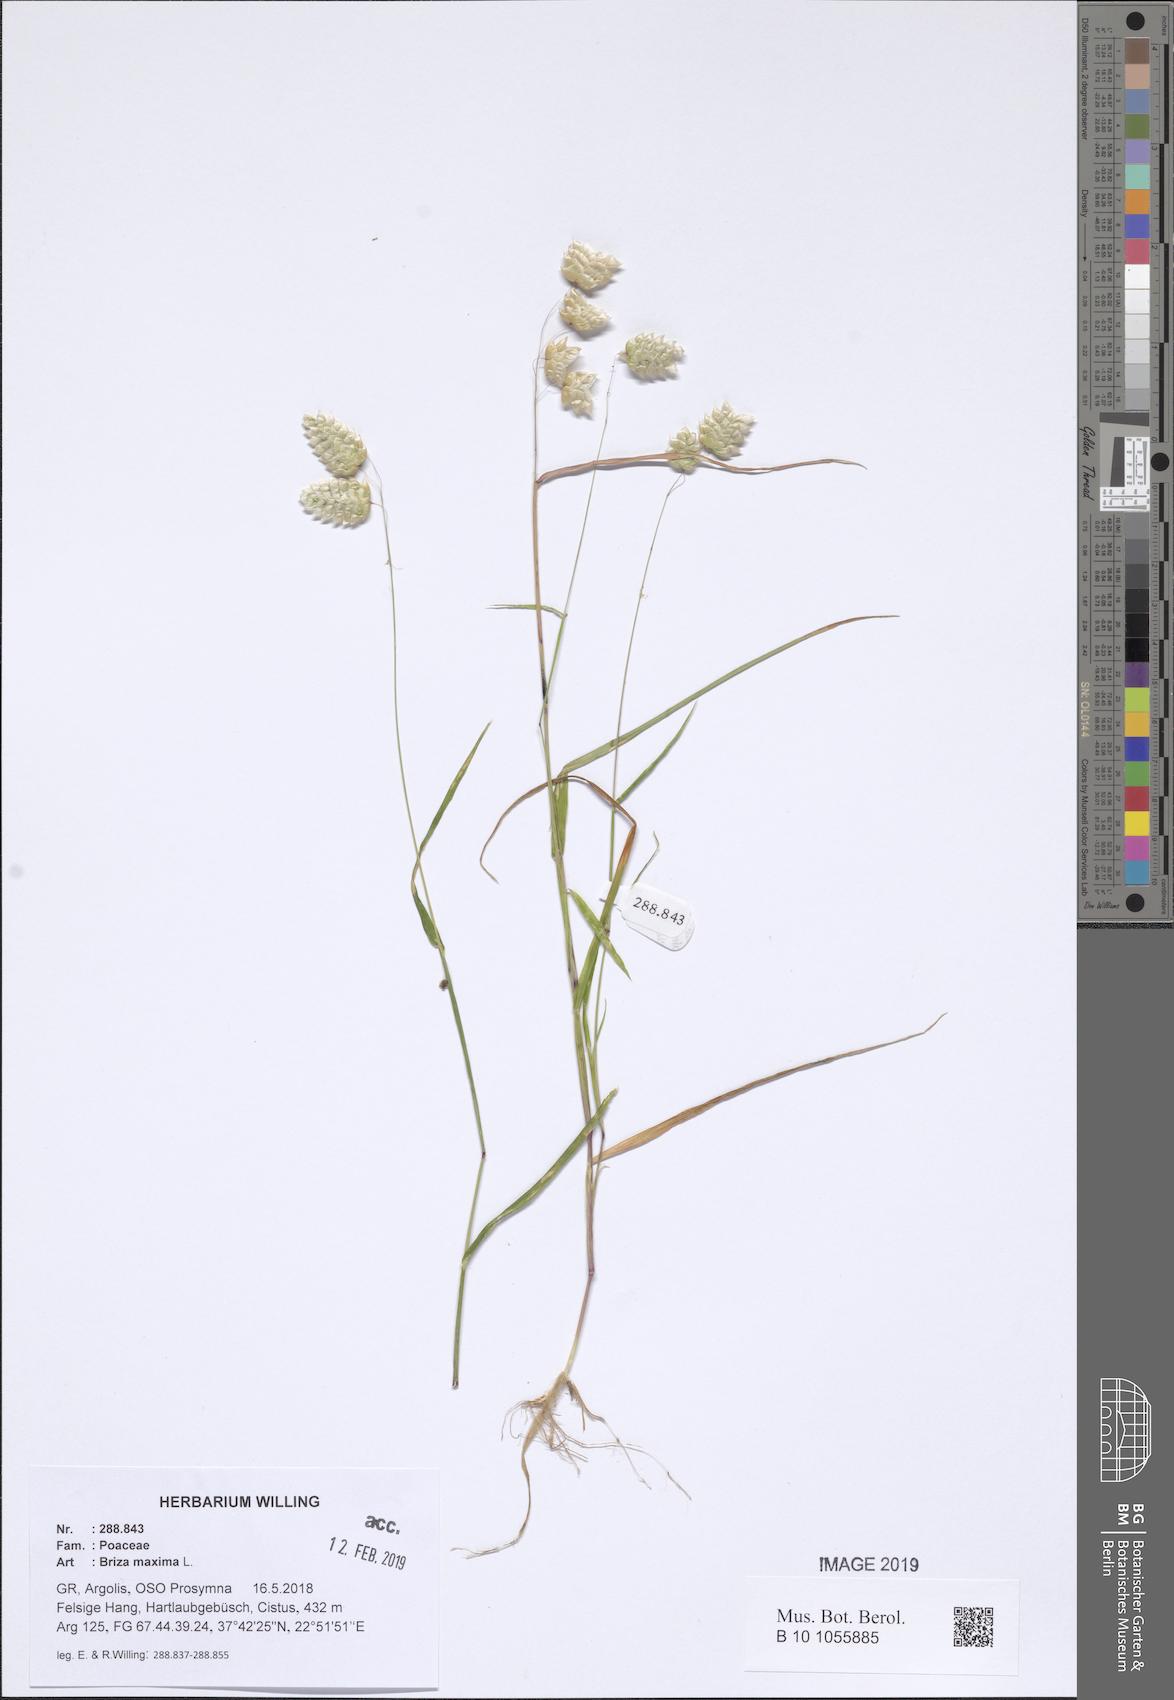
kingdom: Plantae
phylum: Tracheophyta
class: Liliopsida
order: Poales
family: Poaceae
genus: Briza
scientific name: Briza maxima
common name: Big quakinggrass
